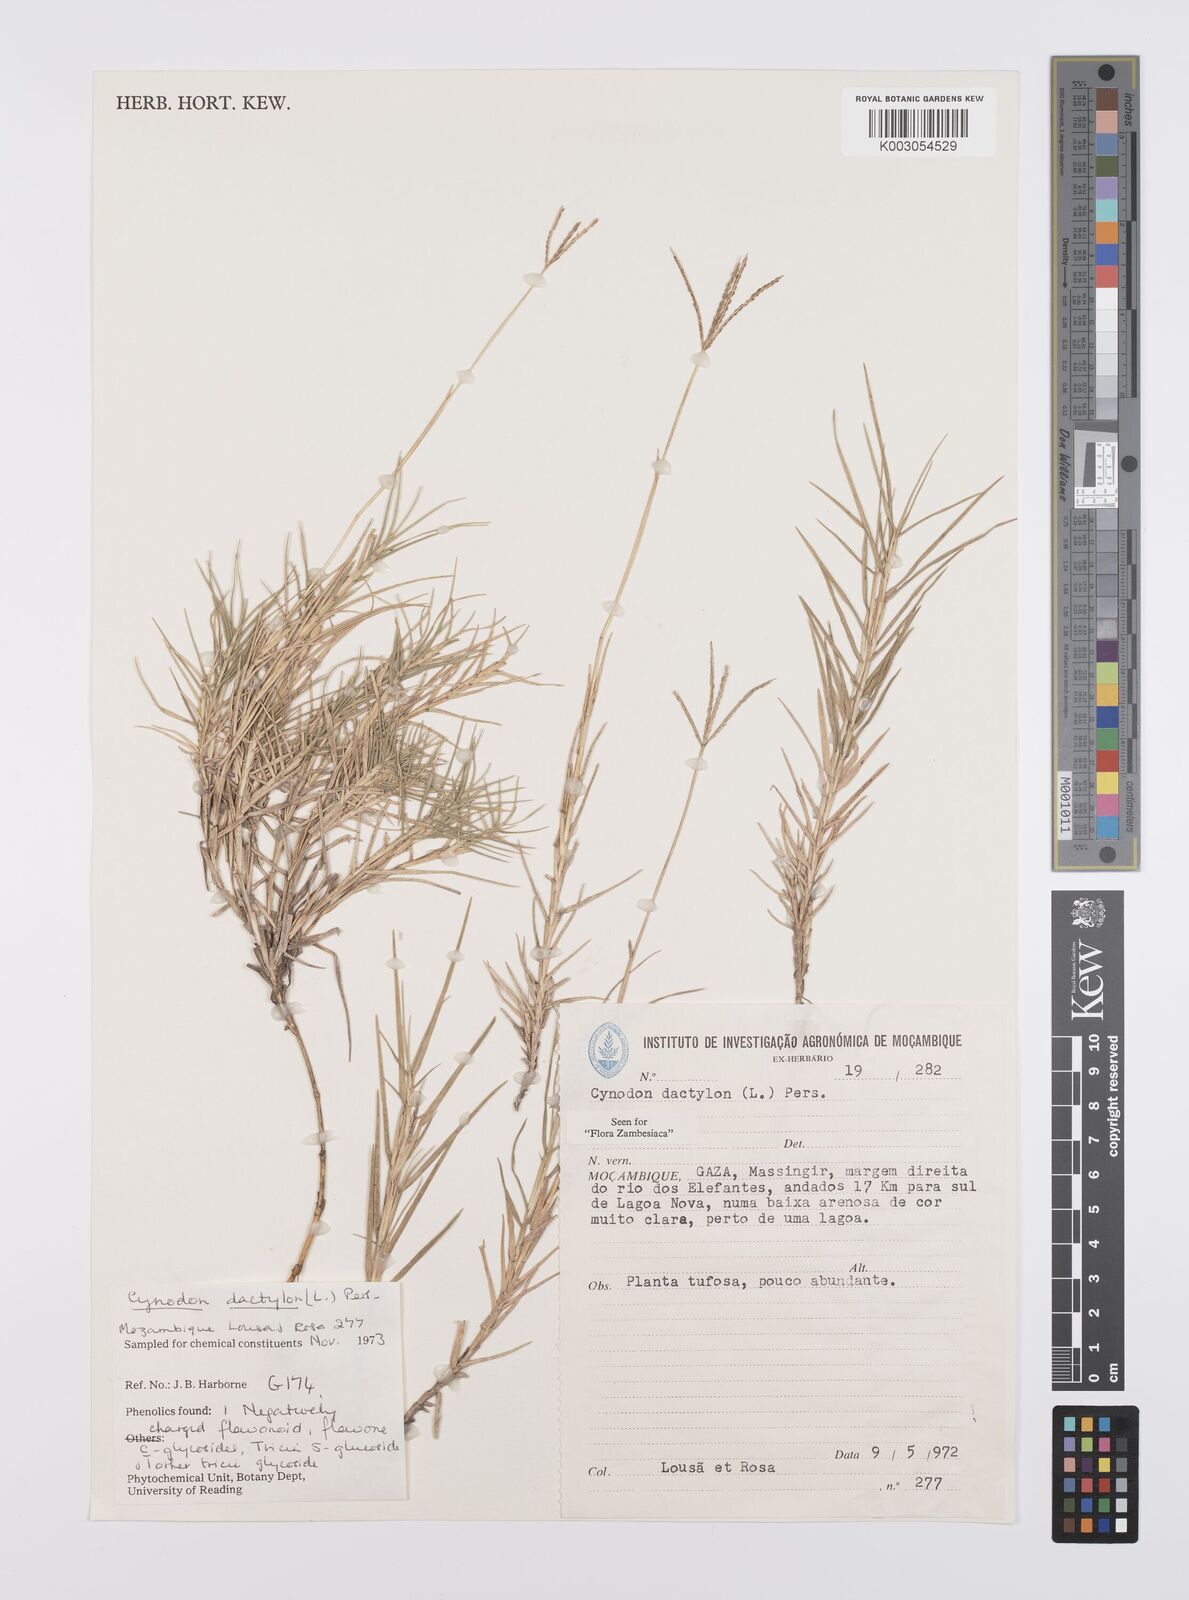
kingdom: Plantae
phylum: Tracheophyta
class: Liliopsida
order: Poales
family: Poaceae
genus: Cynodon
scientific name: Cynodon dactylon
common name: Bermuda grass
